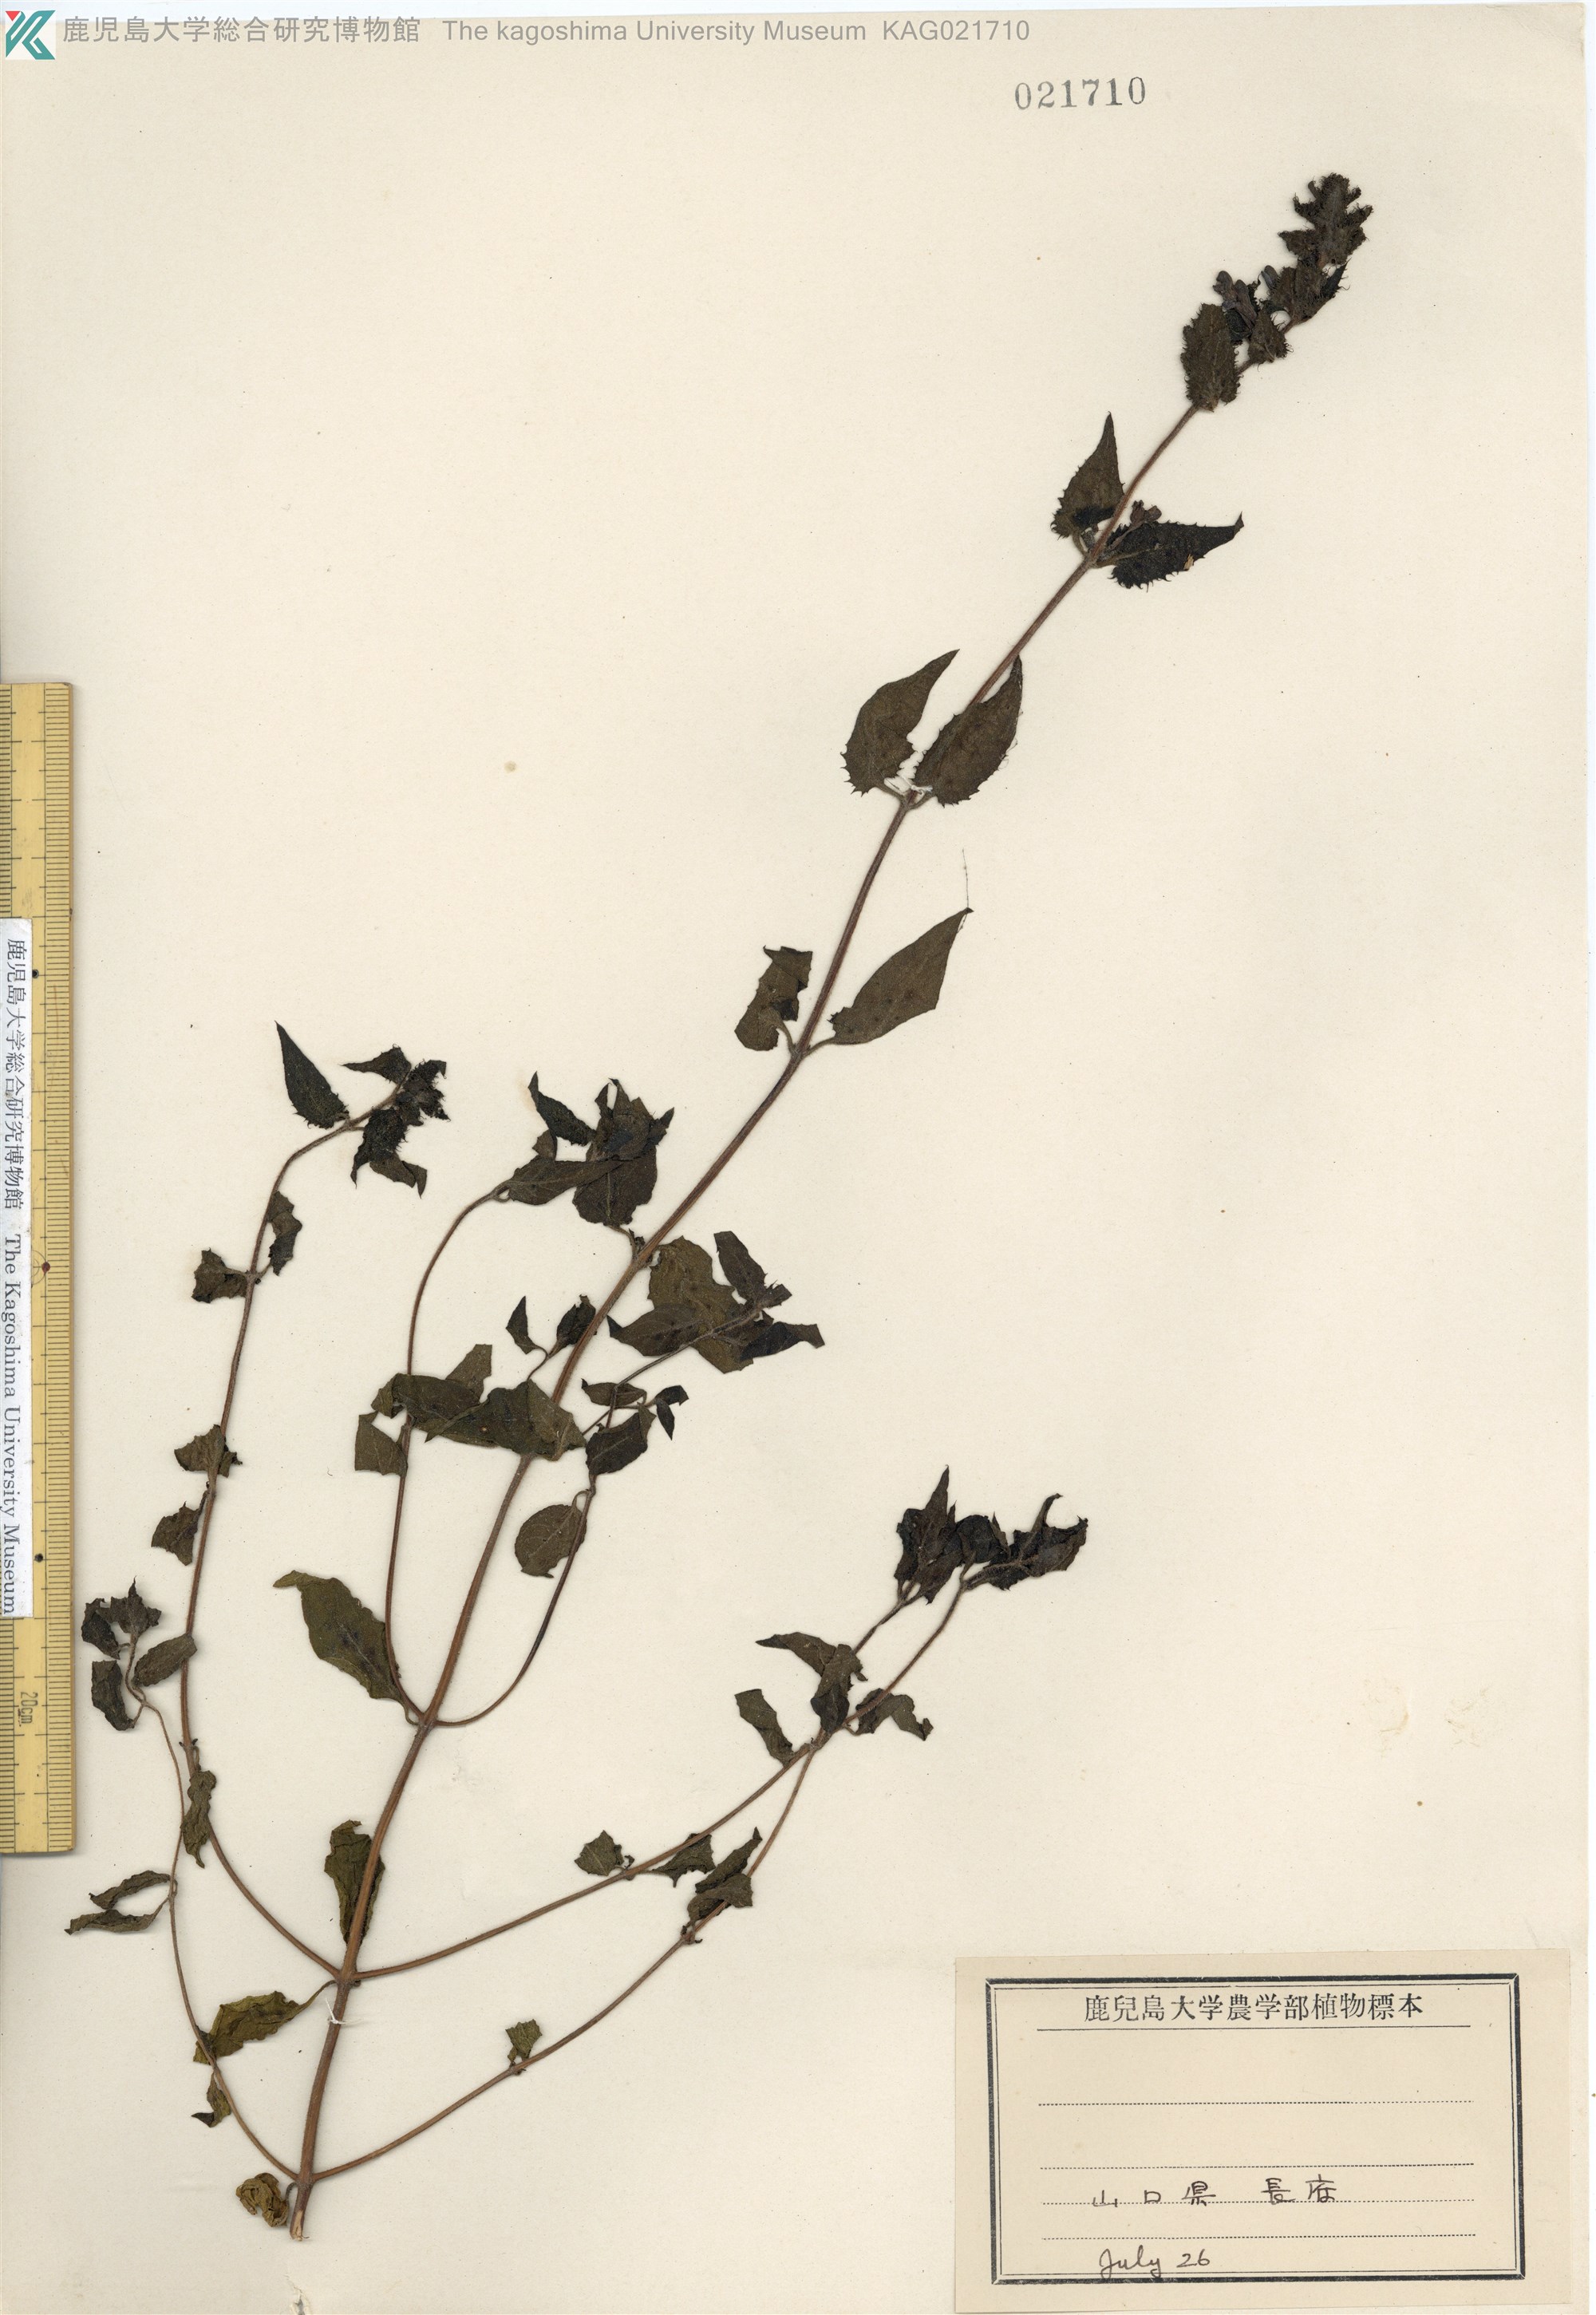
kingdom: Plantae
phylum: Tracheophyta
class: Magnoliopsida
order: Lamiales
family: Orobanchaceae
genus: Melampyrum
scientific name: Melampyrum roseum
